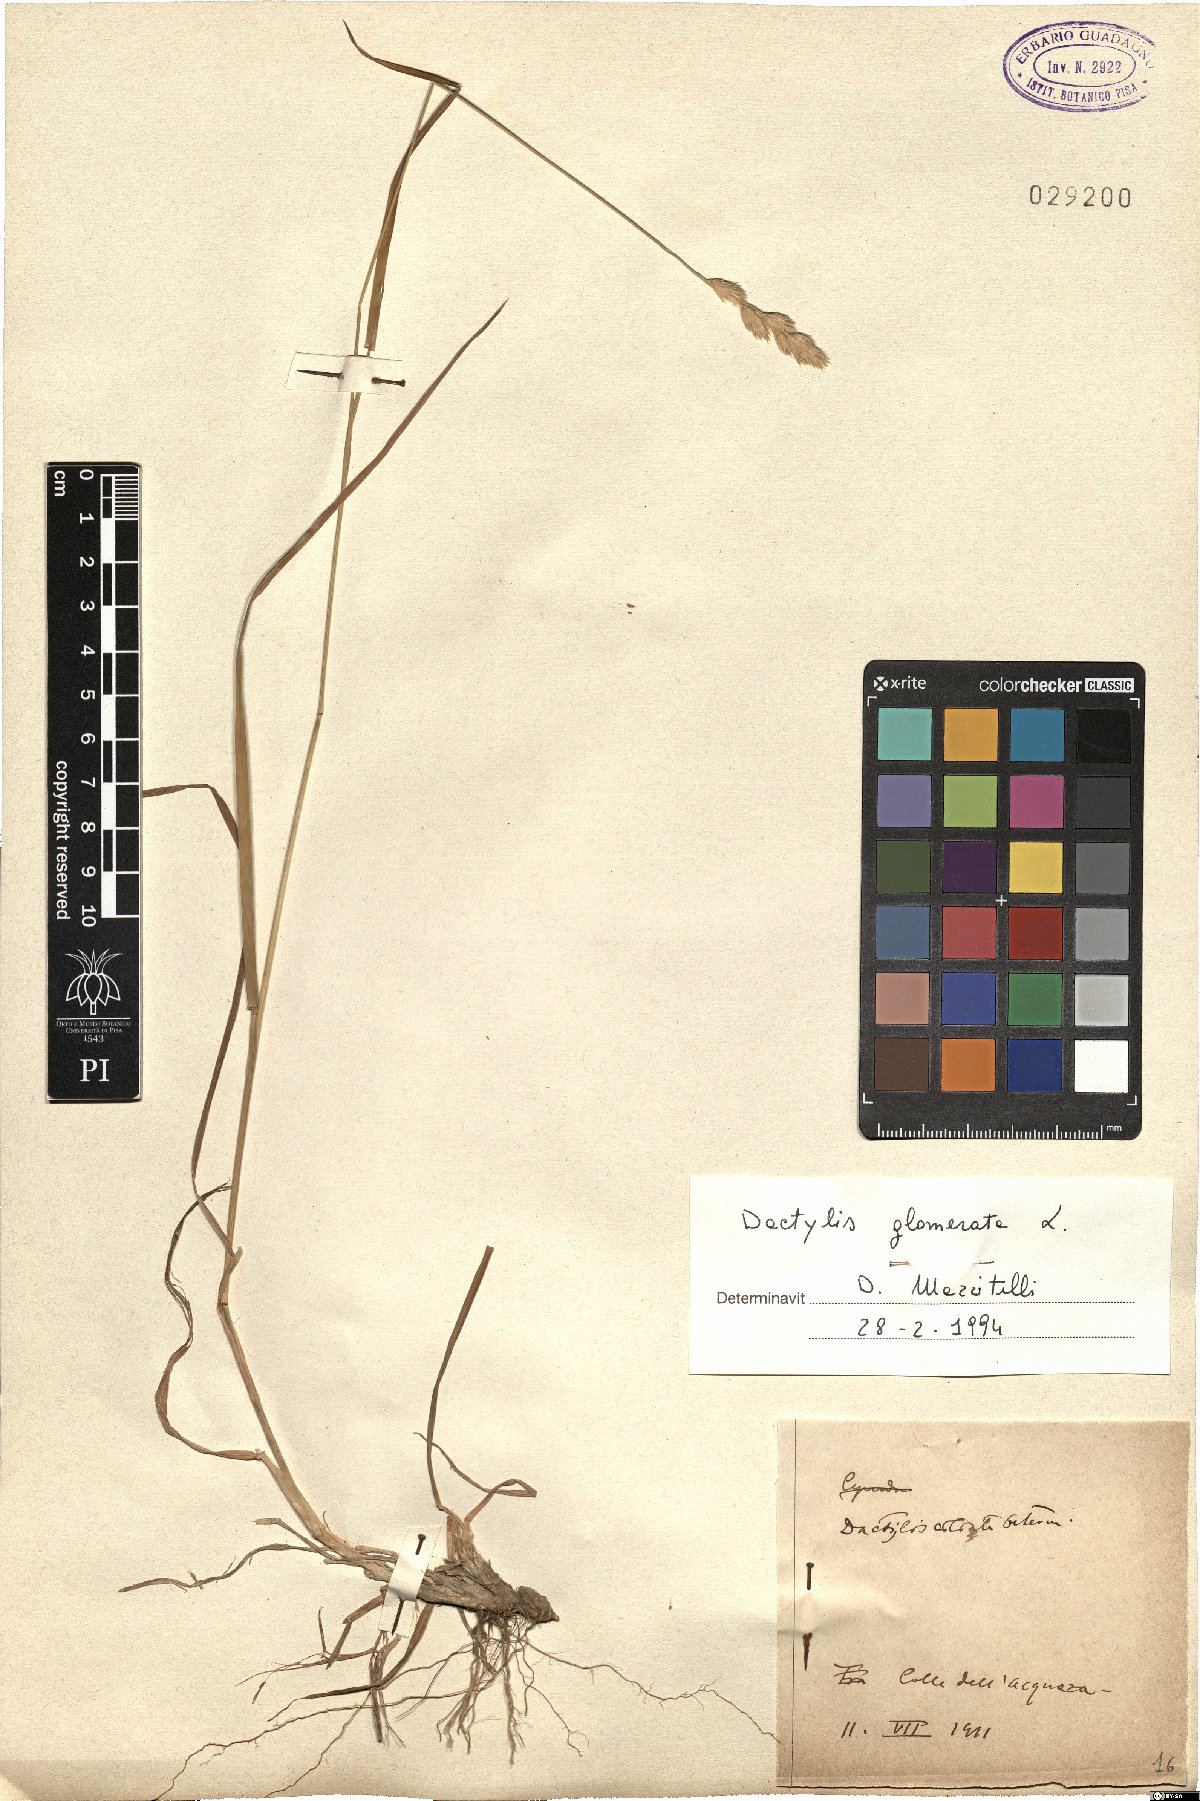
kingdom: Plantae
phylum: Tracheophyta
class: Liliopsida
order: Poales
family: Poaceae
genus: Dactylis
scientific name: Dactylis glomerata
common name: Orchardgrass
